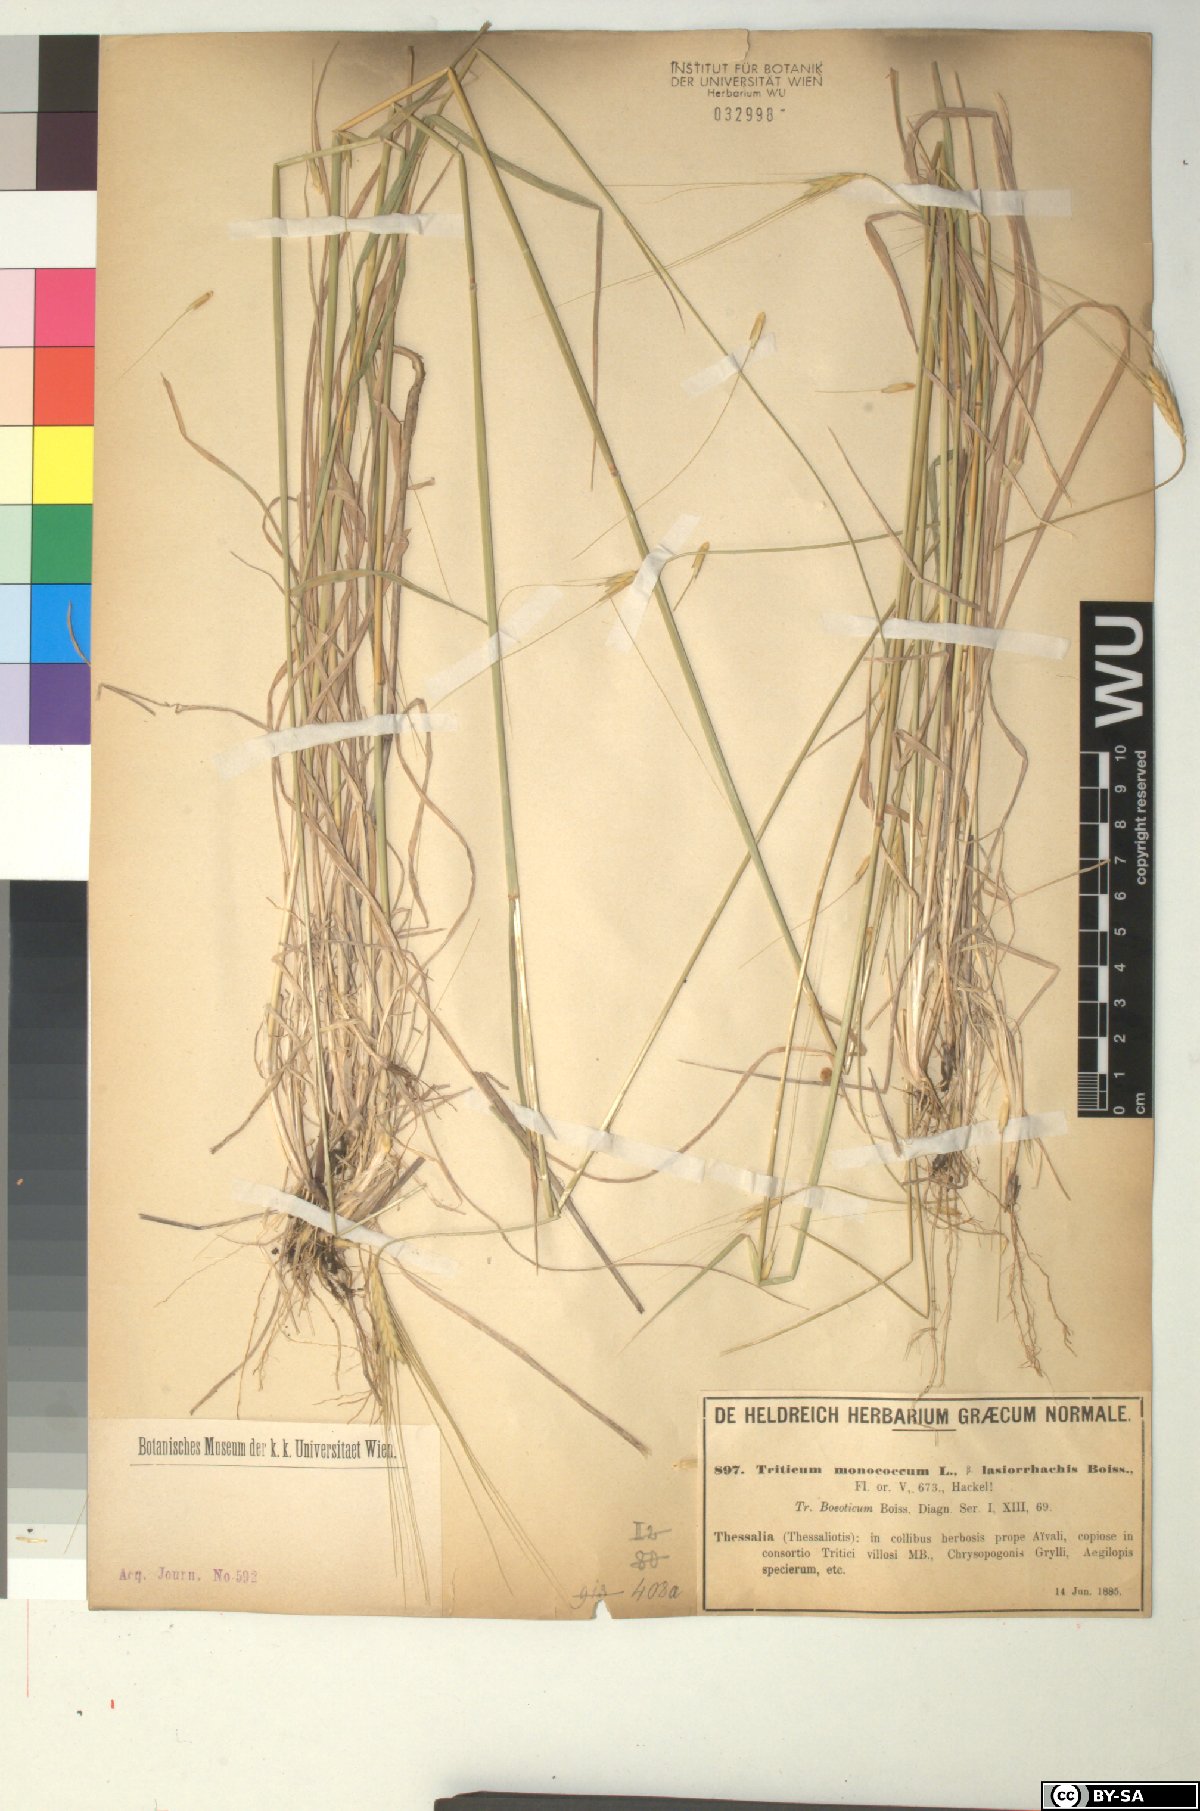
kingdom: Plantae
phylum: Tracheophyta
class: Liliopsida
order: Poales
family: Poaceae
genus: Triticum
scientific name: Triticum monococcum
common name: Einkorn
